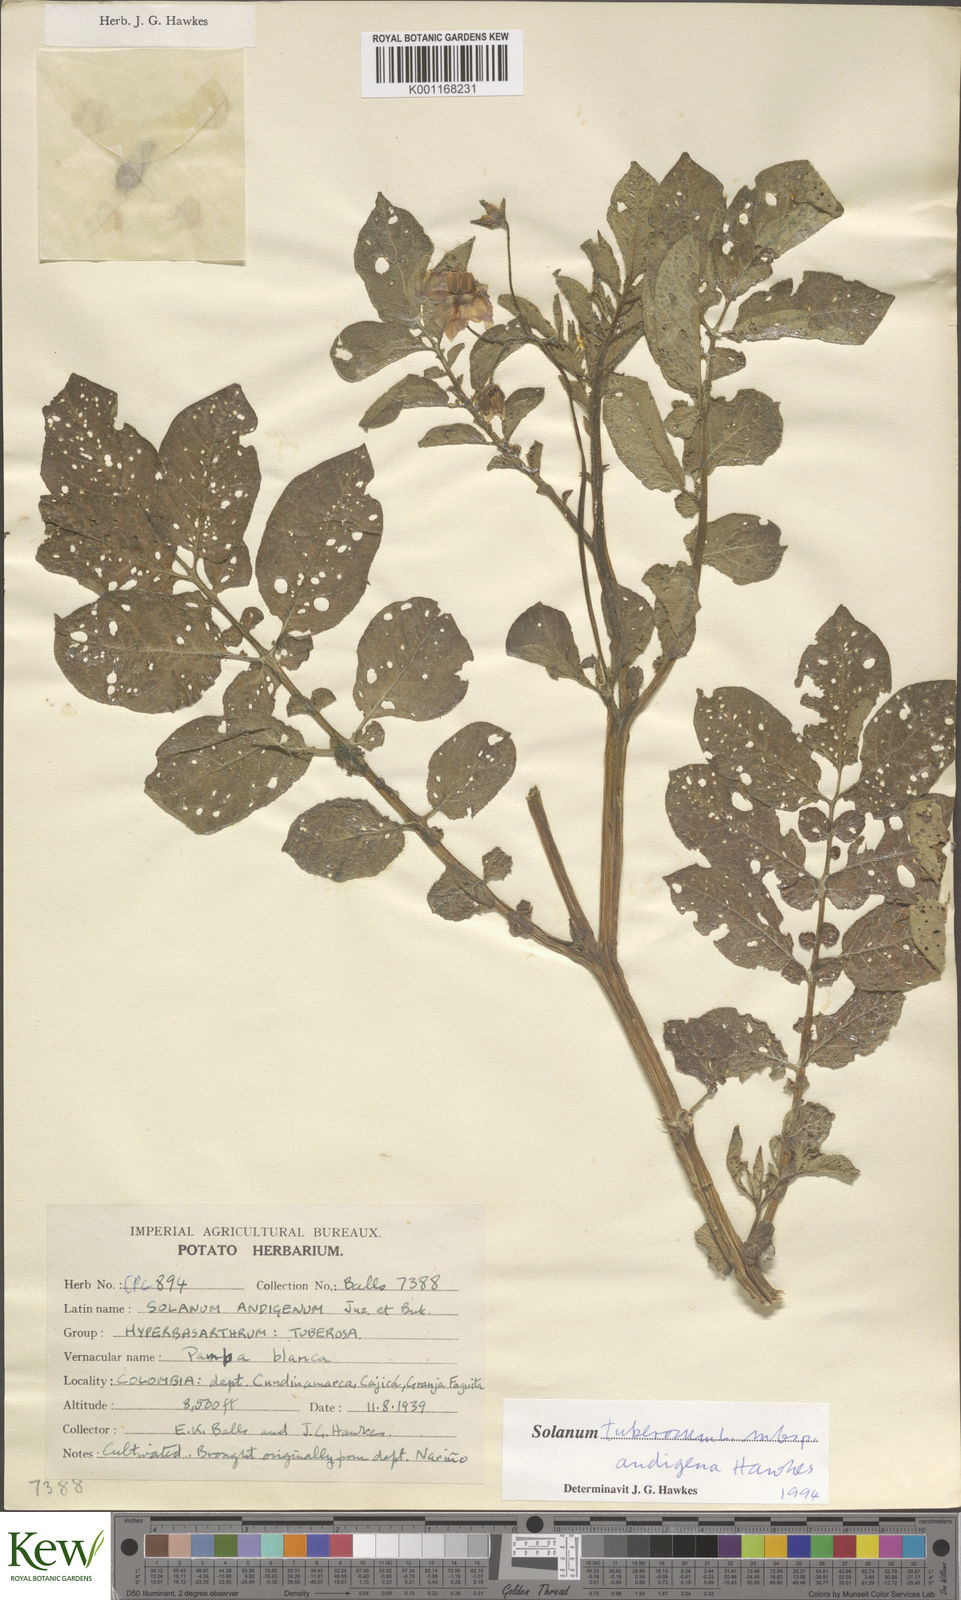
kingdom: Plantae
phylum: Tracheophyta
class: Magnoliopsida
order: Solanales
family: Solanaceae
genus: Solanum
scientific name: Solanum tuberosum
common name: Potato
